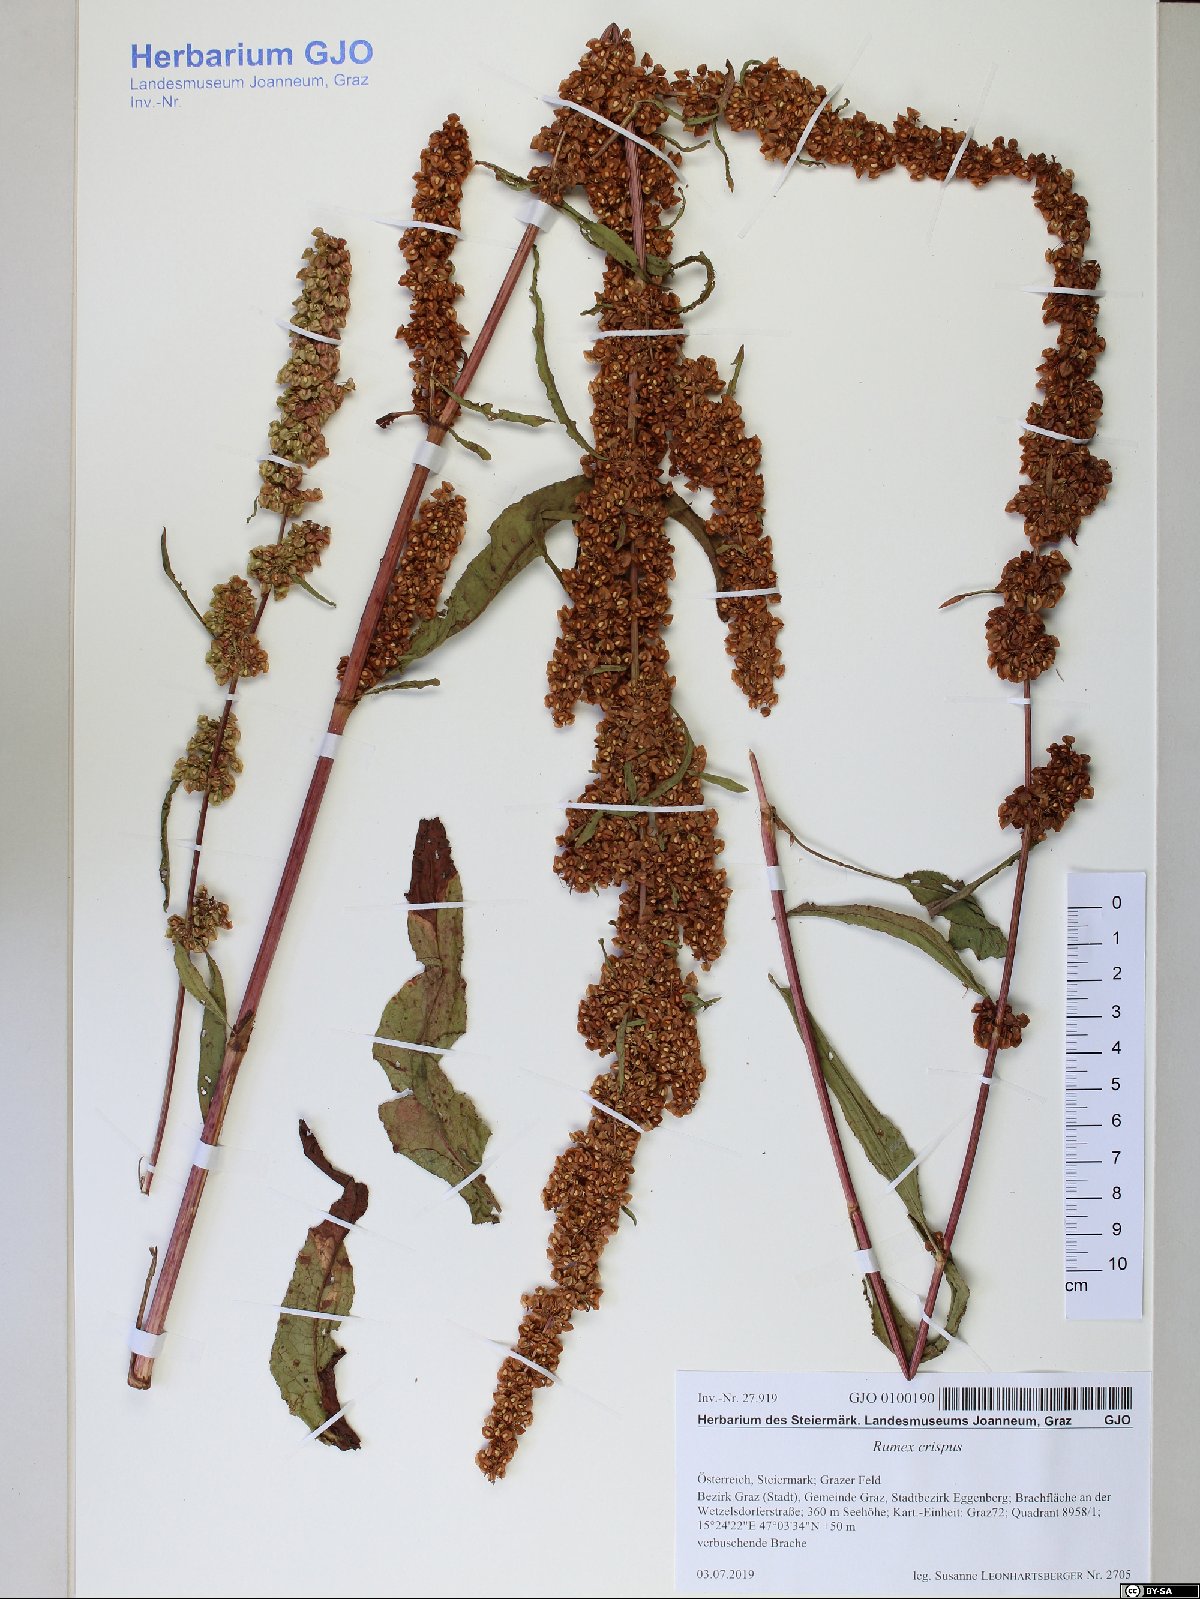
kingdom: Plantae
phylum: Tracheophyta
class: Magnoliopsida
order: Caryophyllales
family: Polygonaceae
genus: Rumex
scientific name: Rumex crispus
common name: Curled dock
